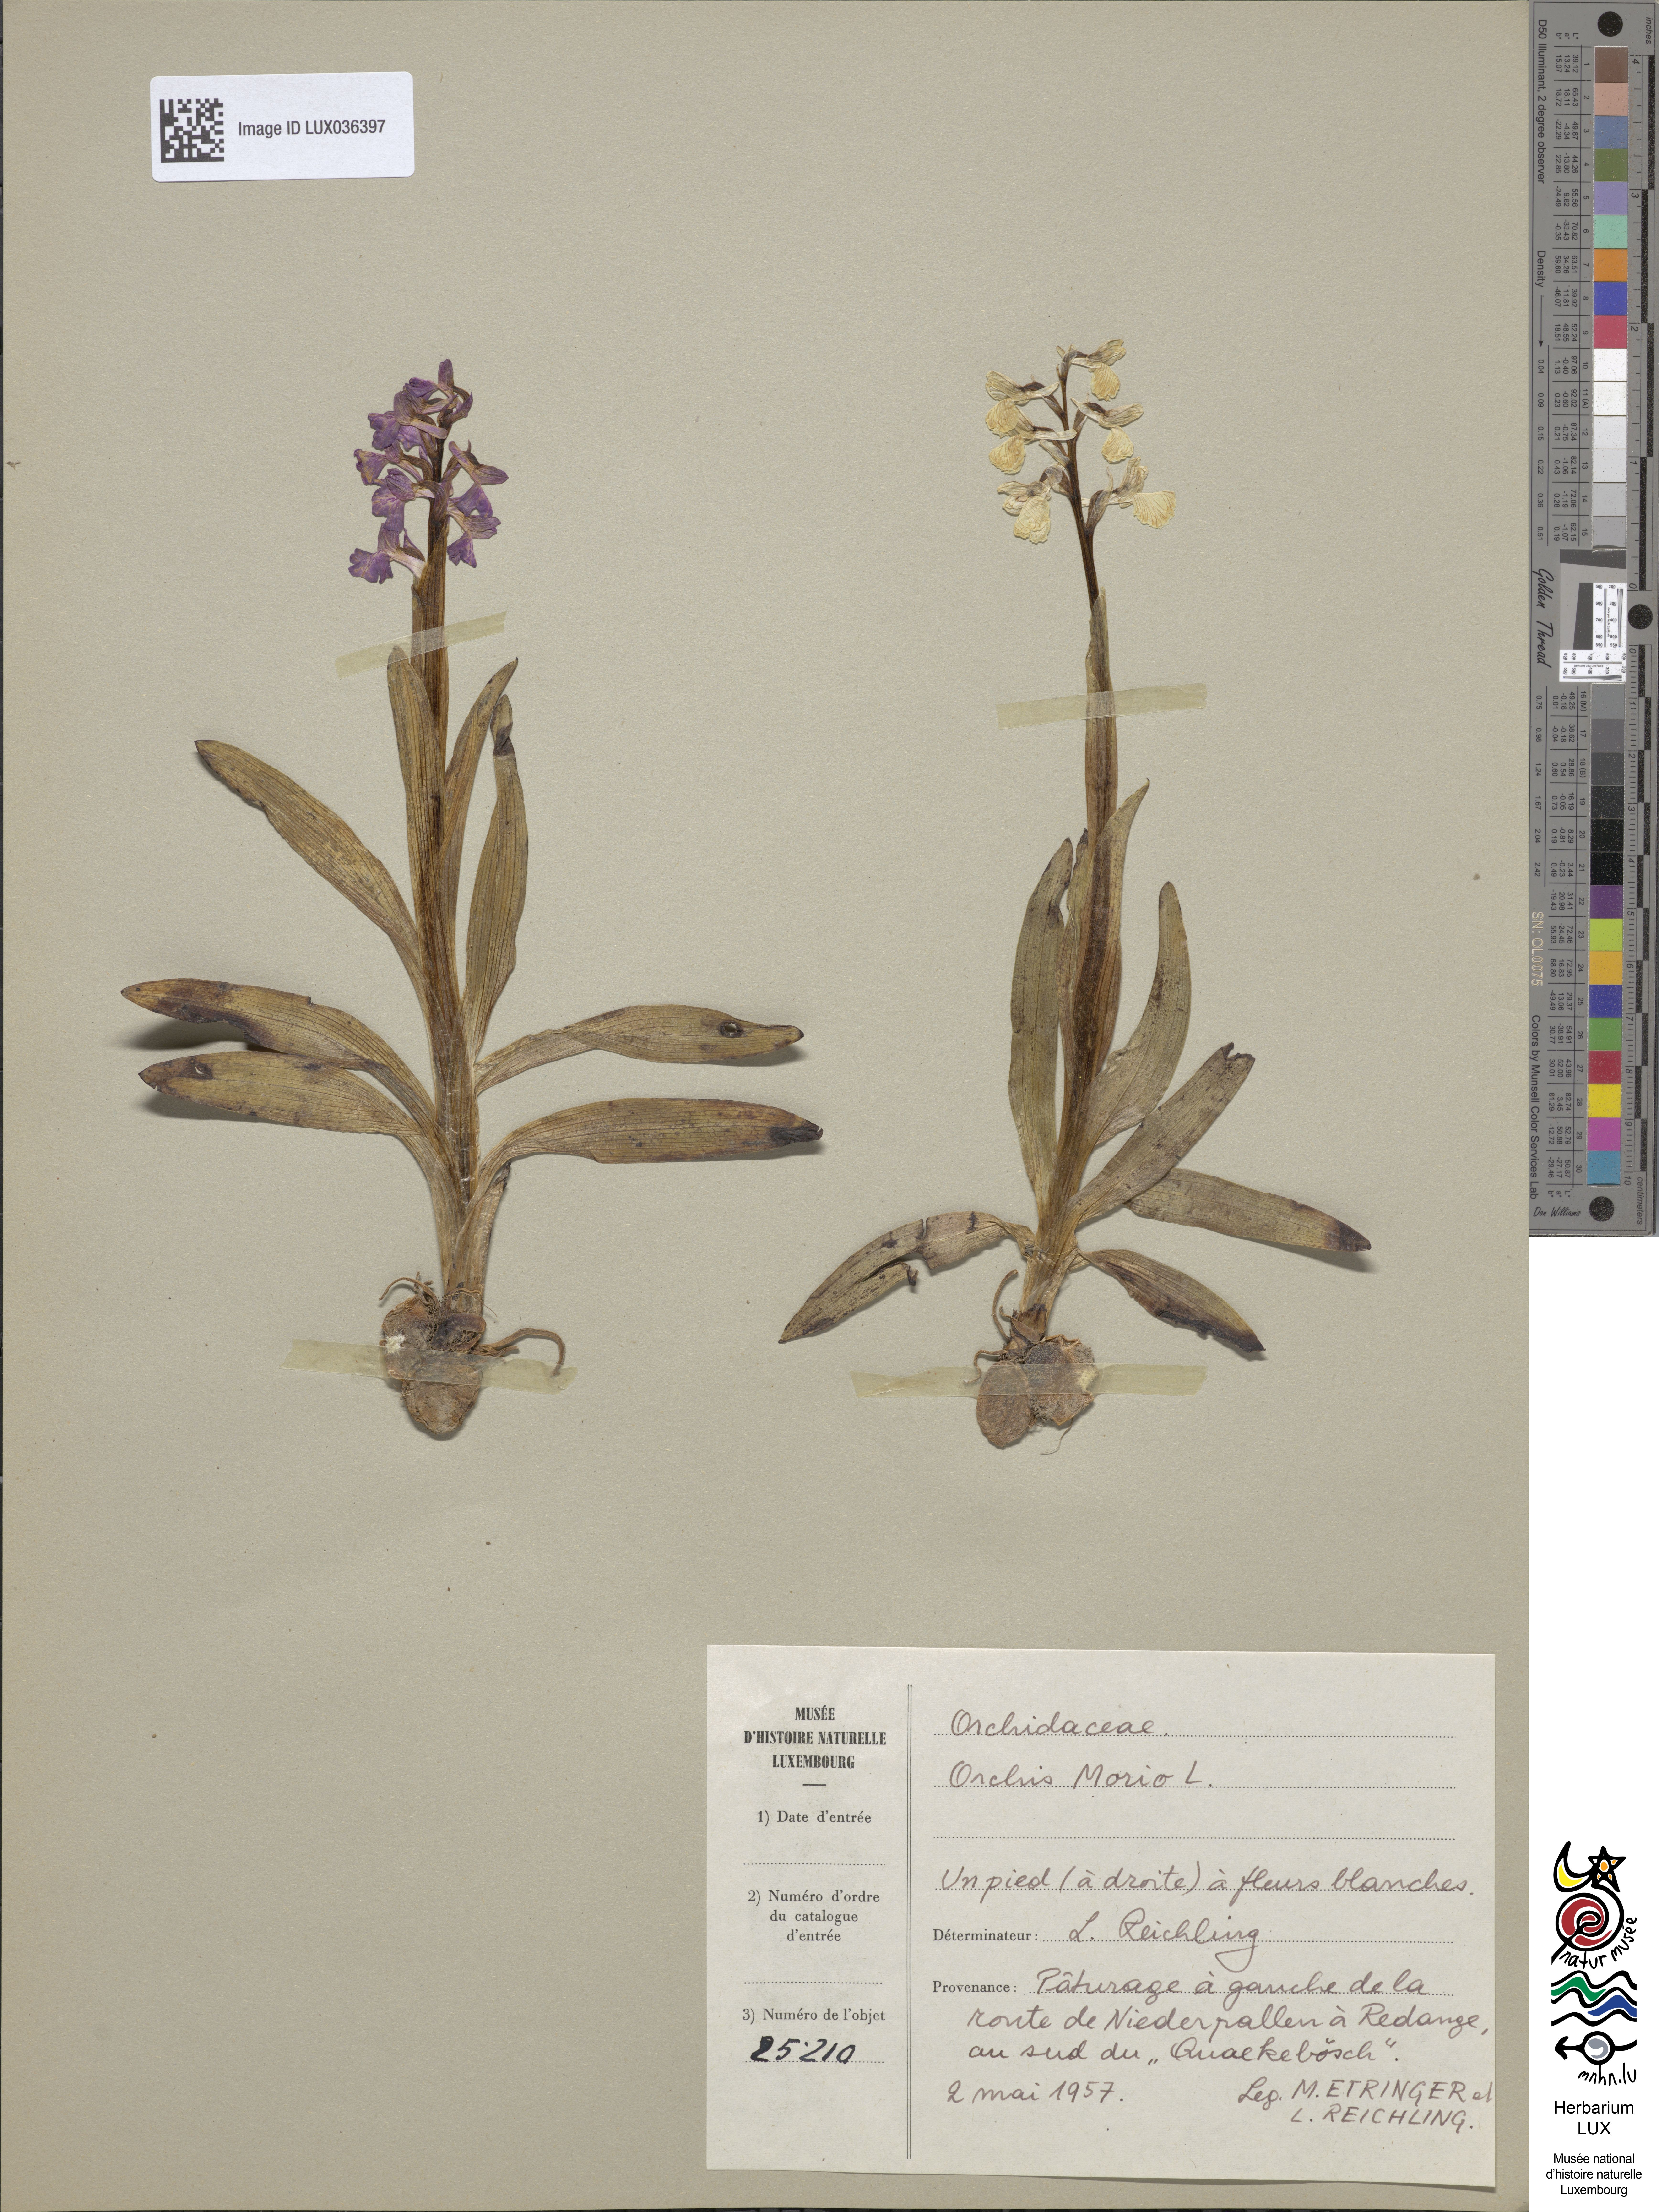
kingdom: Plantae
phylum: Tracheophyta
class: Liliopsida
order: Asparagales
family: Orchidaceae
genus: Anacamptis
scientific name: Anacamptis morio
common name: Green-winged orchid
